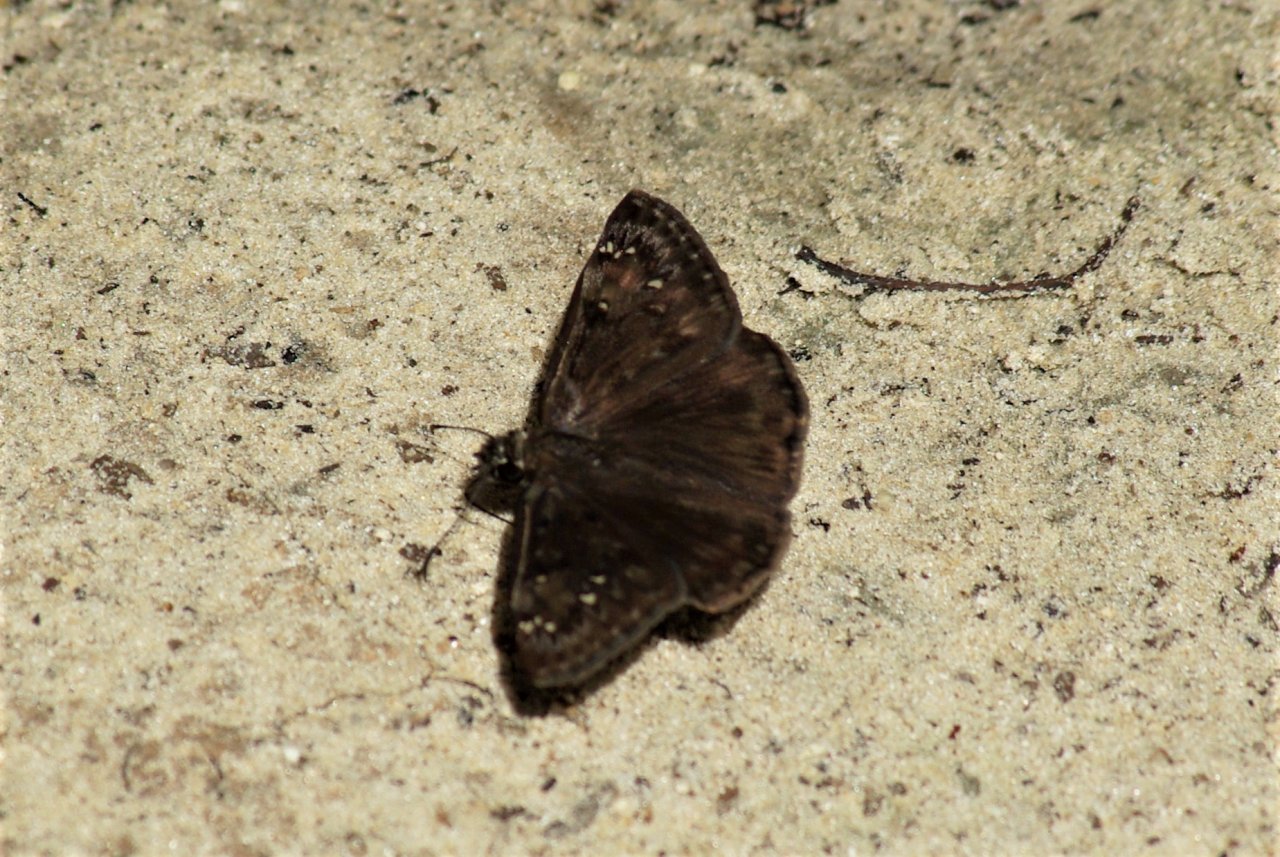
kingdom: Animalia
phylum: Arthropoda
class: Insecta
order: Lepidoptera
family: Hesperiidae
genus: Gesta
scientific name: Gesta
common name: Horace's Duskywing
